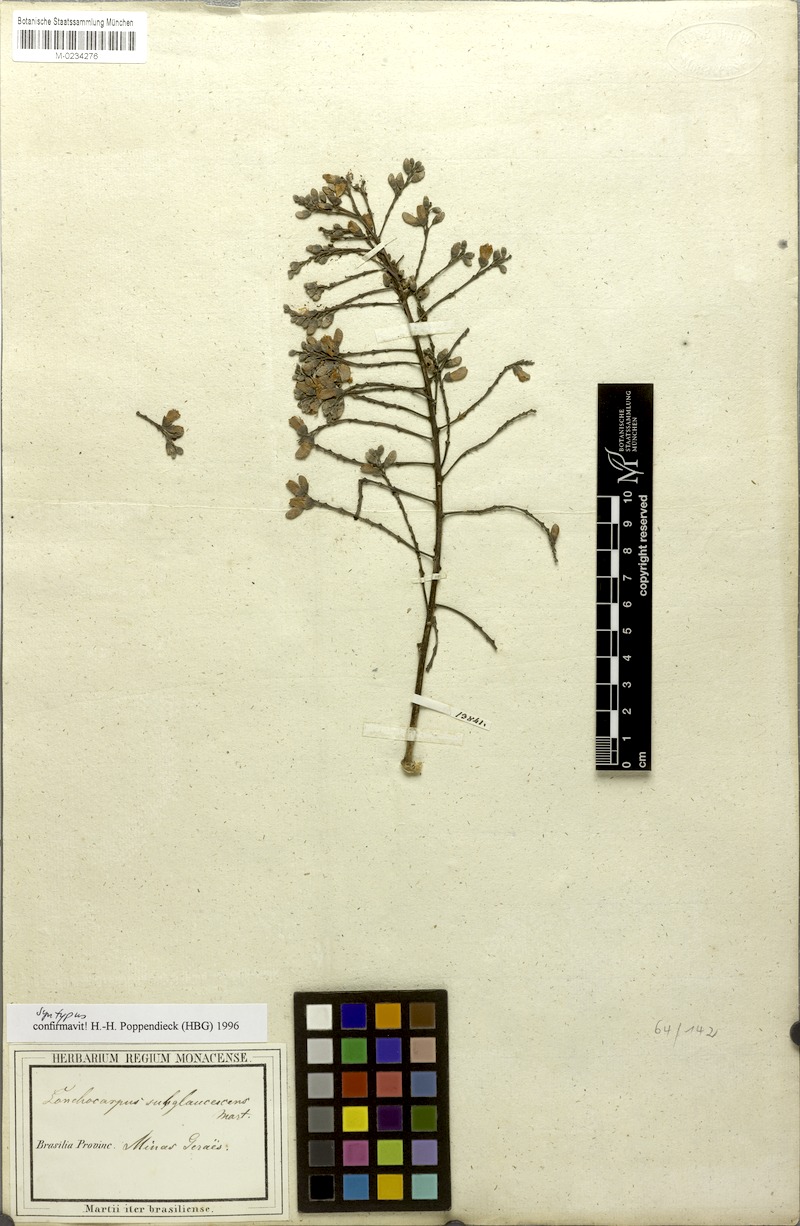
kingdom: Plantae
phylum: Tracheophyta
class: Magnoliopsida
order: Fabales
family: Fabaceae
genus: Lonchocarpus
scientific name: Lonchocarpus subglaucescens
